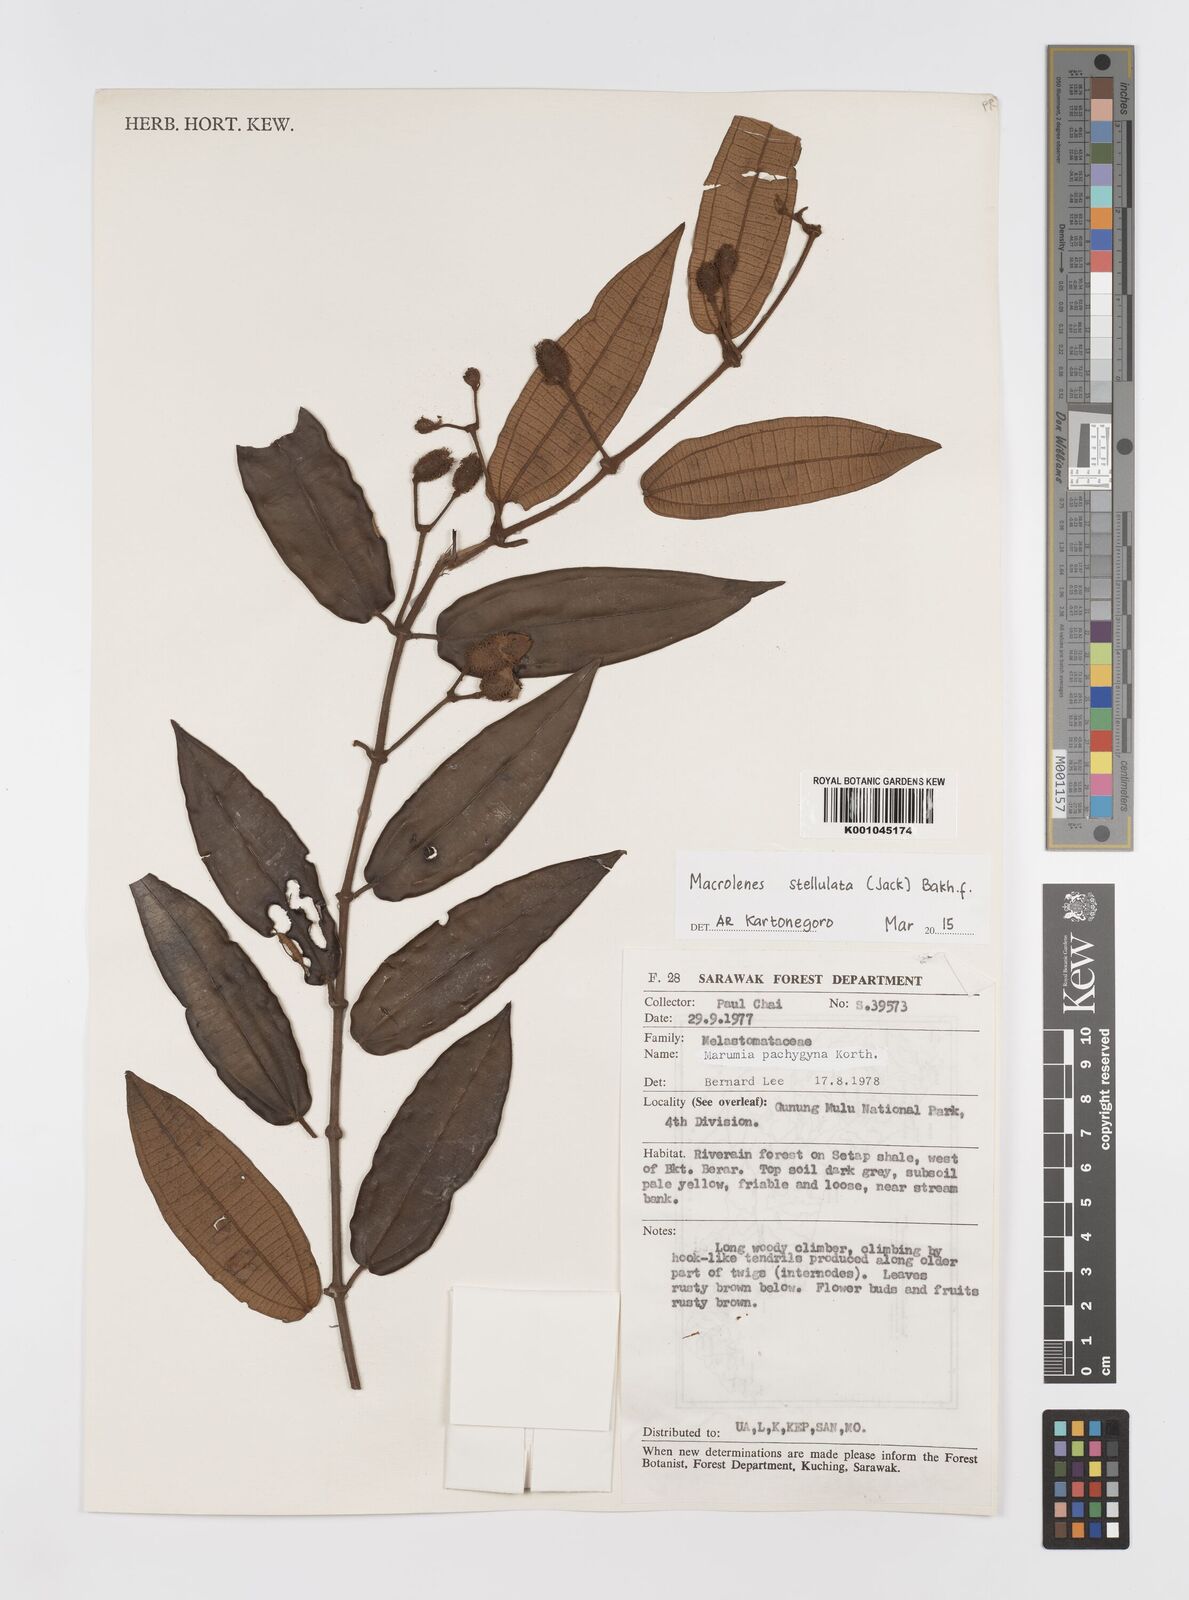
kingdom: Plantae
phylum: Tracheophyta
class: Magnoliopsida
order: Myrtales
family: Melastomataceae
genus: Macrolenes
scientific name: Macrolenes stellulata
